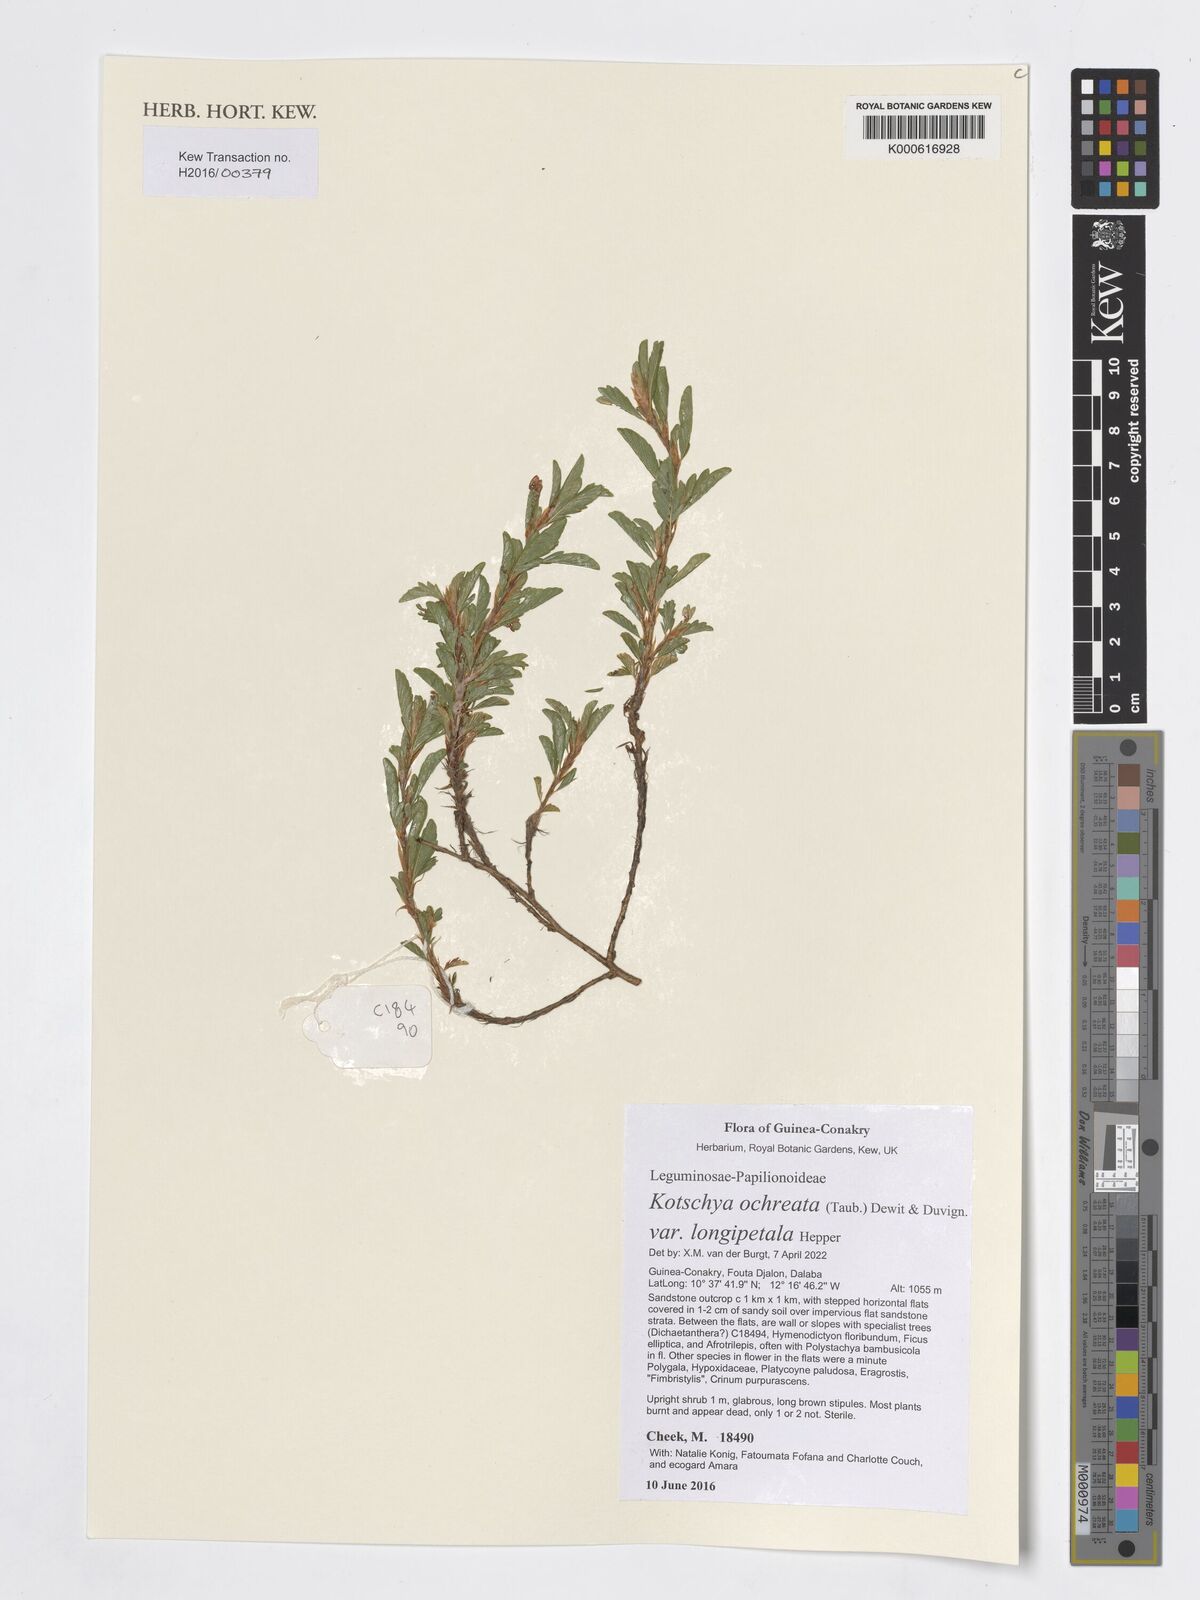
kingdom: Plantae
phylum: Tracheophyta
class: Magnoliopsida
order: Fabales
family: Fabaceae
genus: Kotschya
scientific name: Kotschya ochreata
